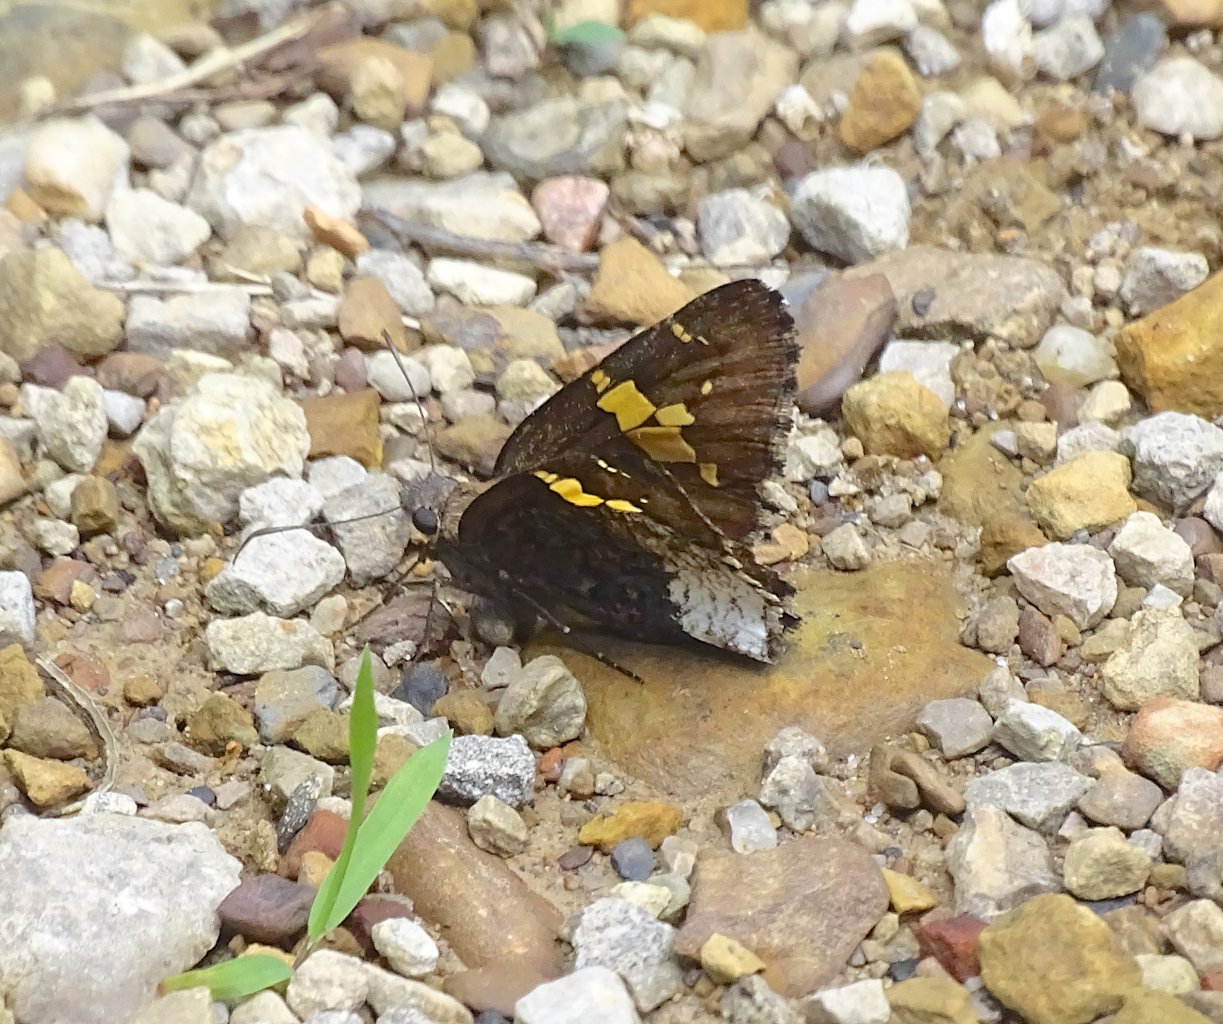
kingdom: Animalia
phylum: Arthropoda
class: Insecta
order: Lepidoptera
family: Hesperiidae
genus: Achalarus
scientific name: Achalarus lyciades
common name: Hoary Edge
